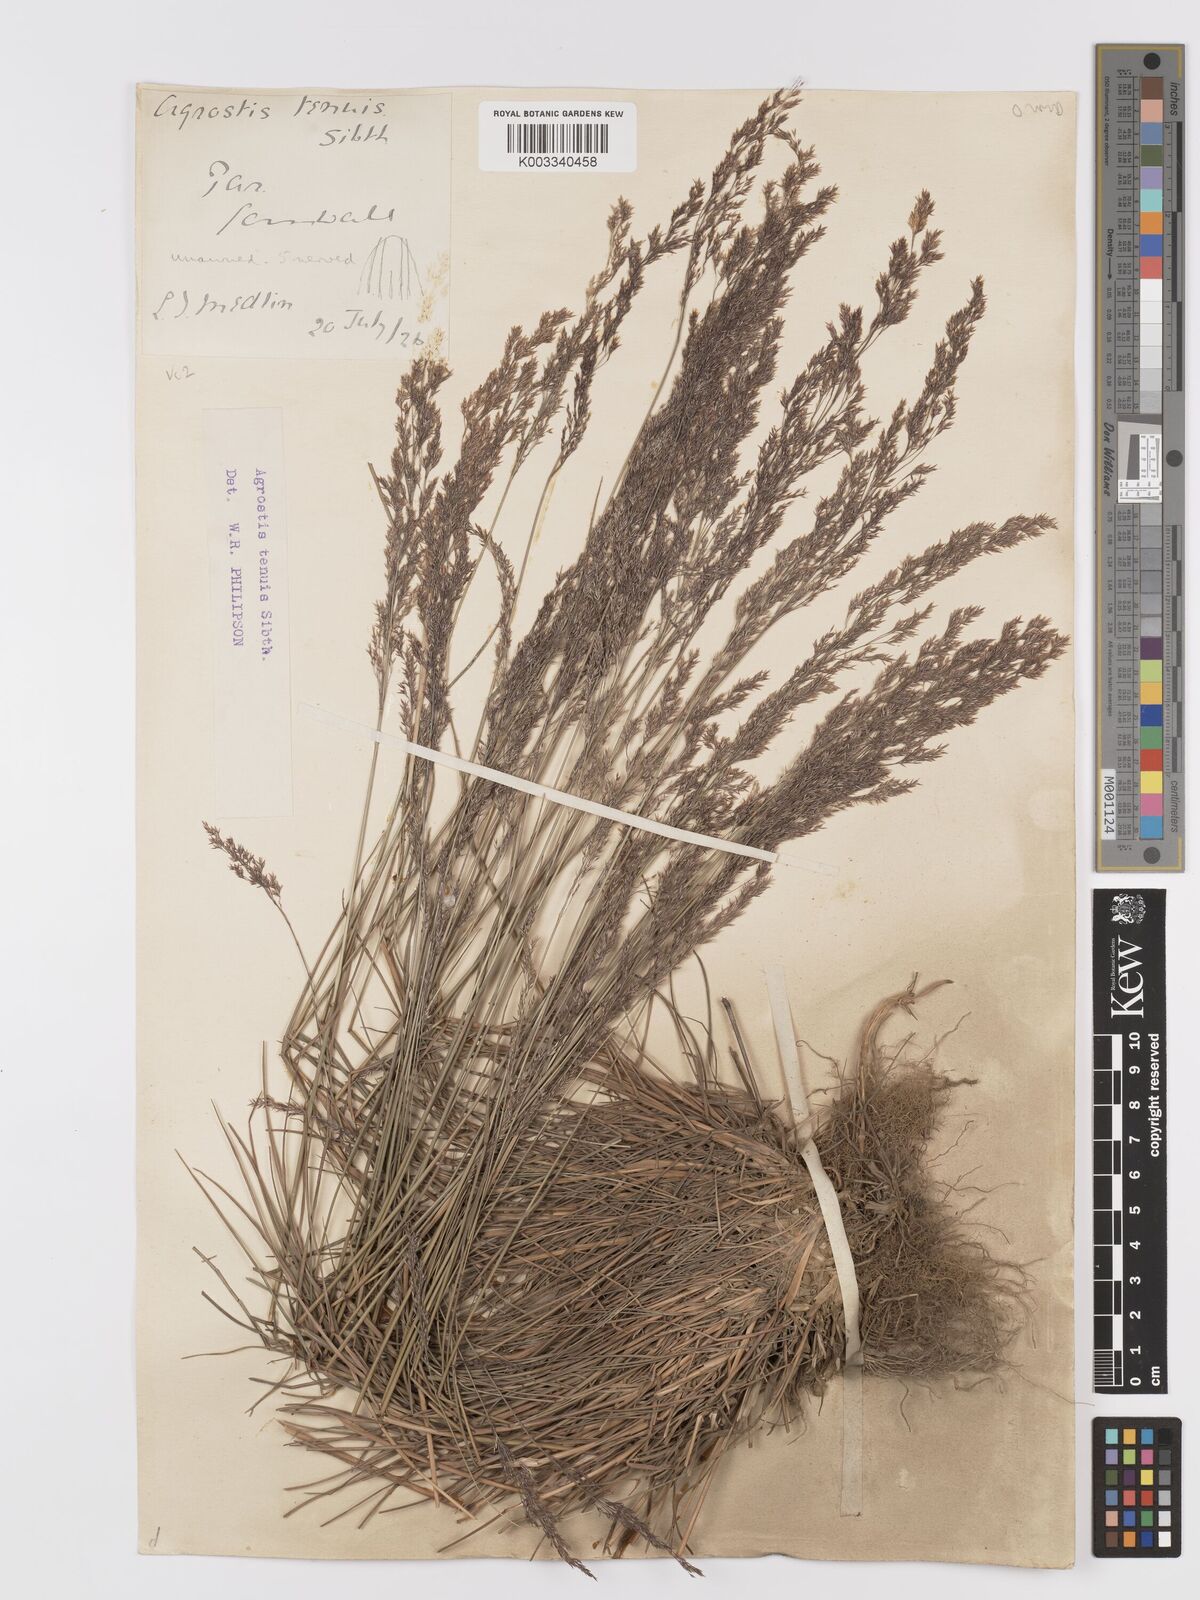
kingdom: Plantae
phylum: Tracheophyta
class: Liliopsida
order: Poales
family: Poaceae
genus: Agrostis
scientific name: Agrostis capillaris
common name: Colonial bentgrass
